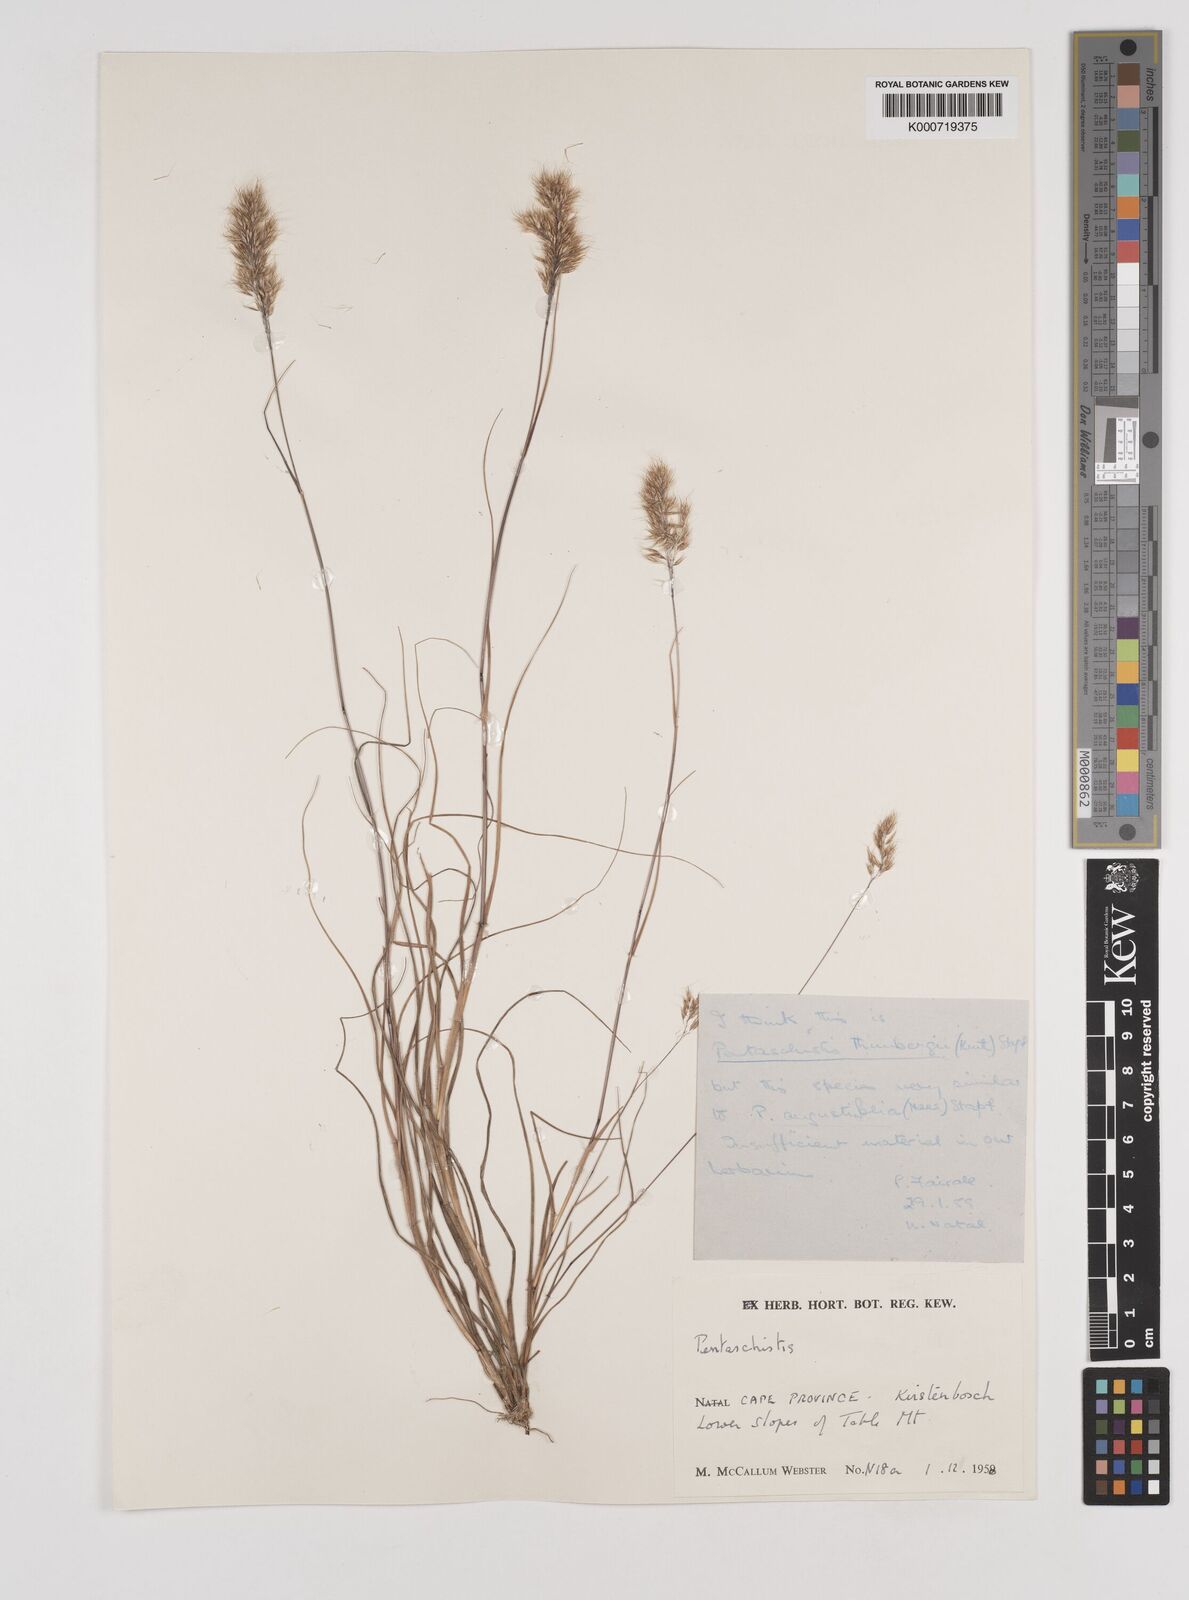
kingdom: Plantae
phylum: Tracheophyta
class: Liliopsida
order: Poales
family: Poaceae
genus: Pentameris
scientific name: Pentameris triseta
